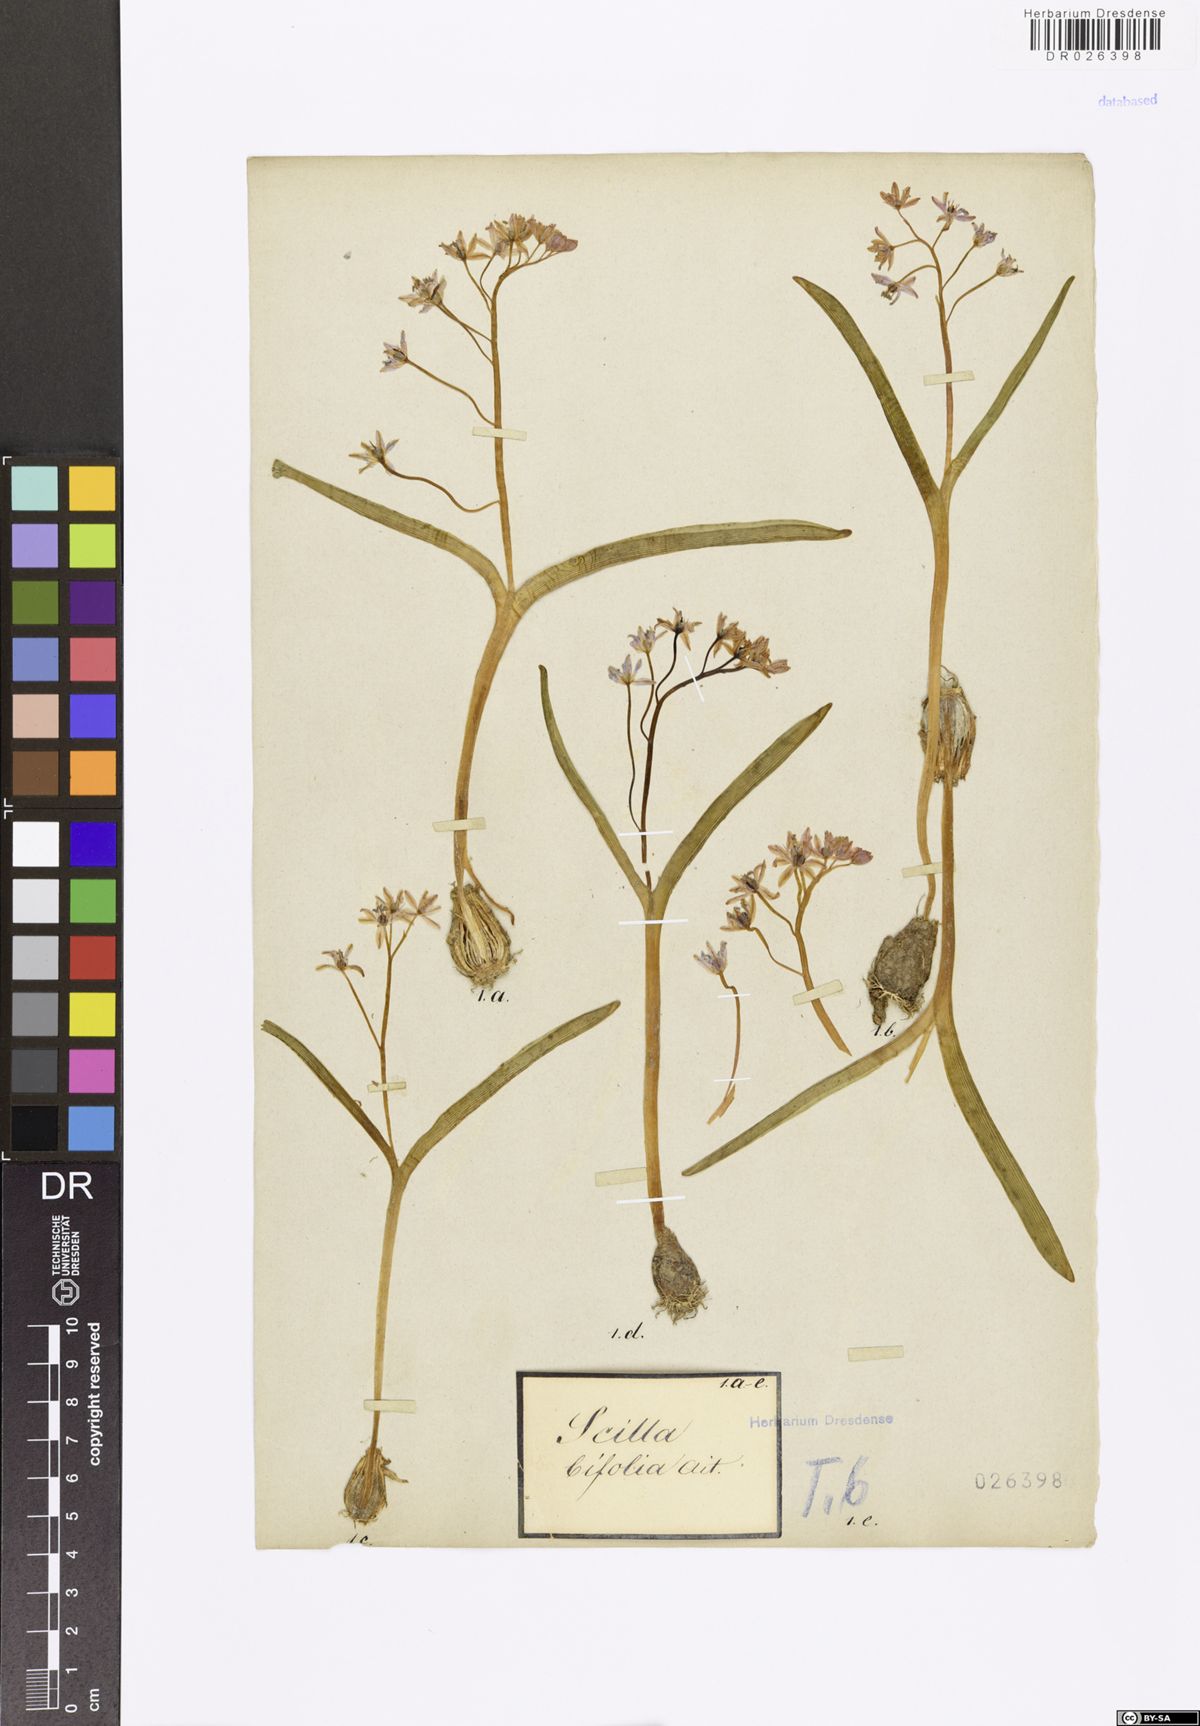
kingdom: Plantae
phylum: Tracheophyta
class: Liliopsida
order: Asparagales
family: Asparagaceae
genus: Scilla
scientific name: Scilla vindobonensis
